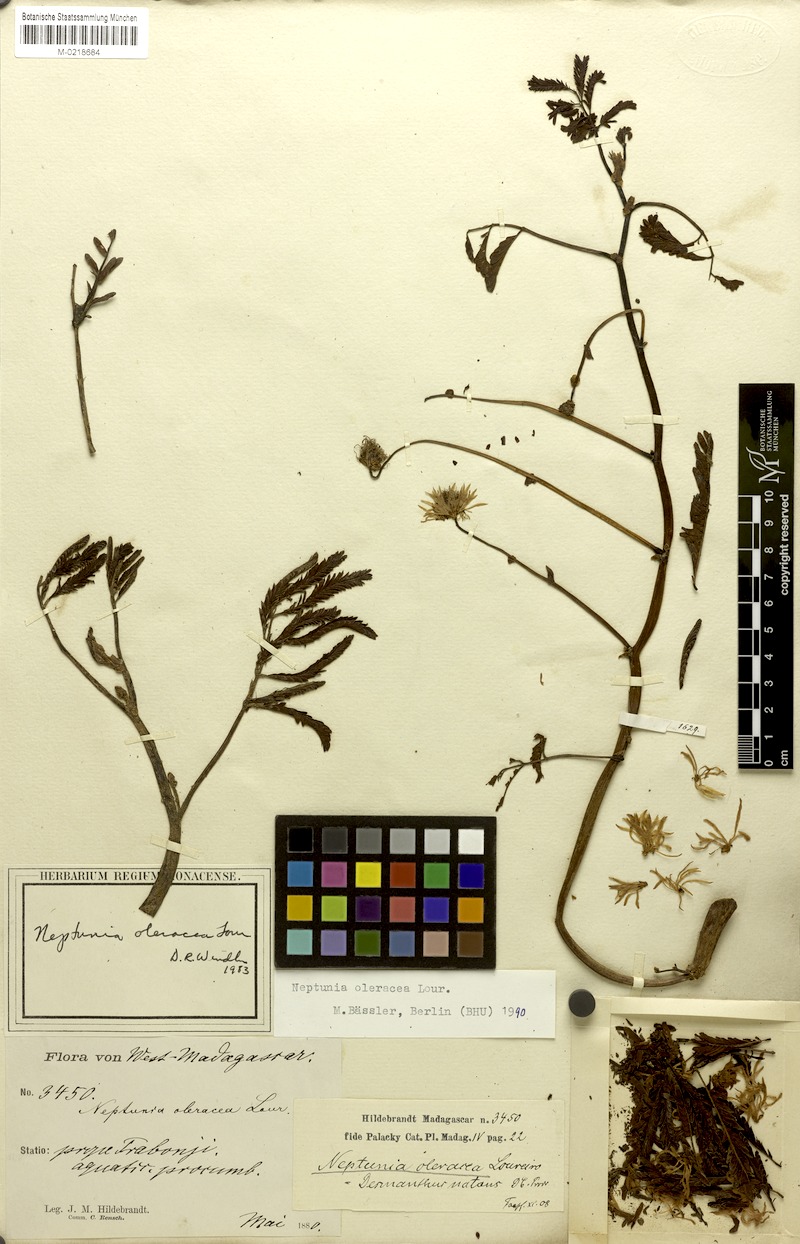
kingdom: Plantae
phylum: Tracheophyta
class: Magnoliopsida
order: Fabales
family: Fabaceae
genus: Neptunia
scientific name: Neptunia prostrata
